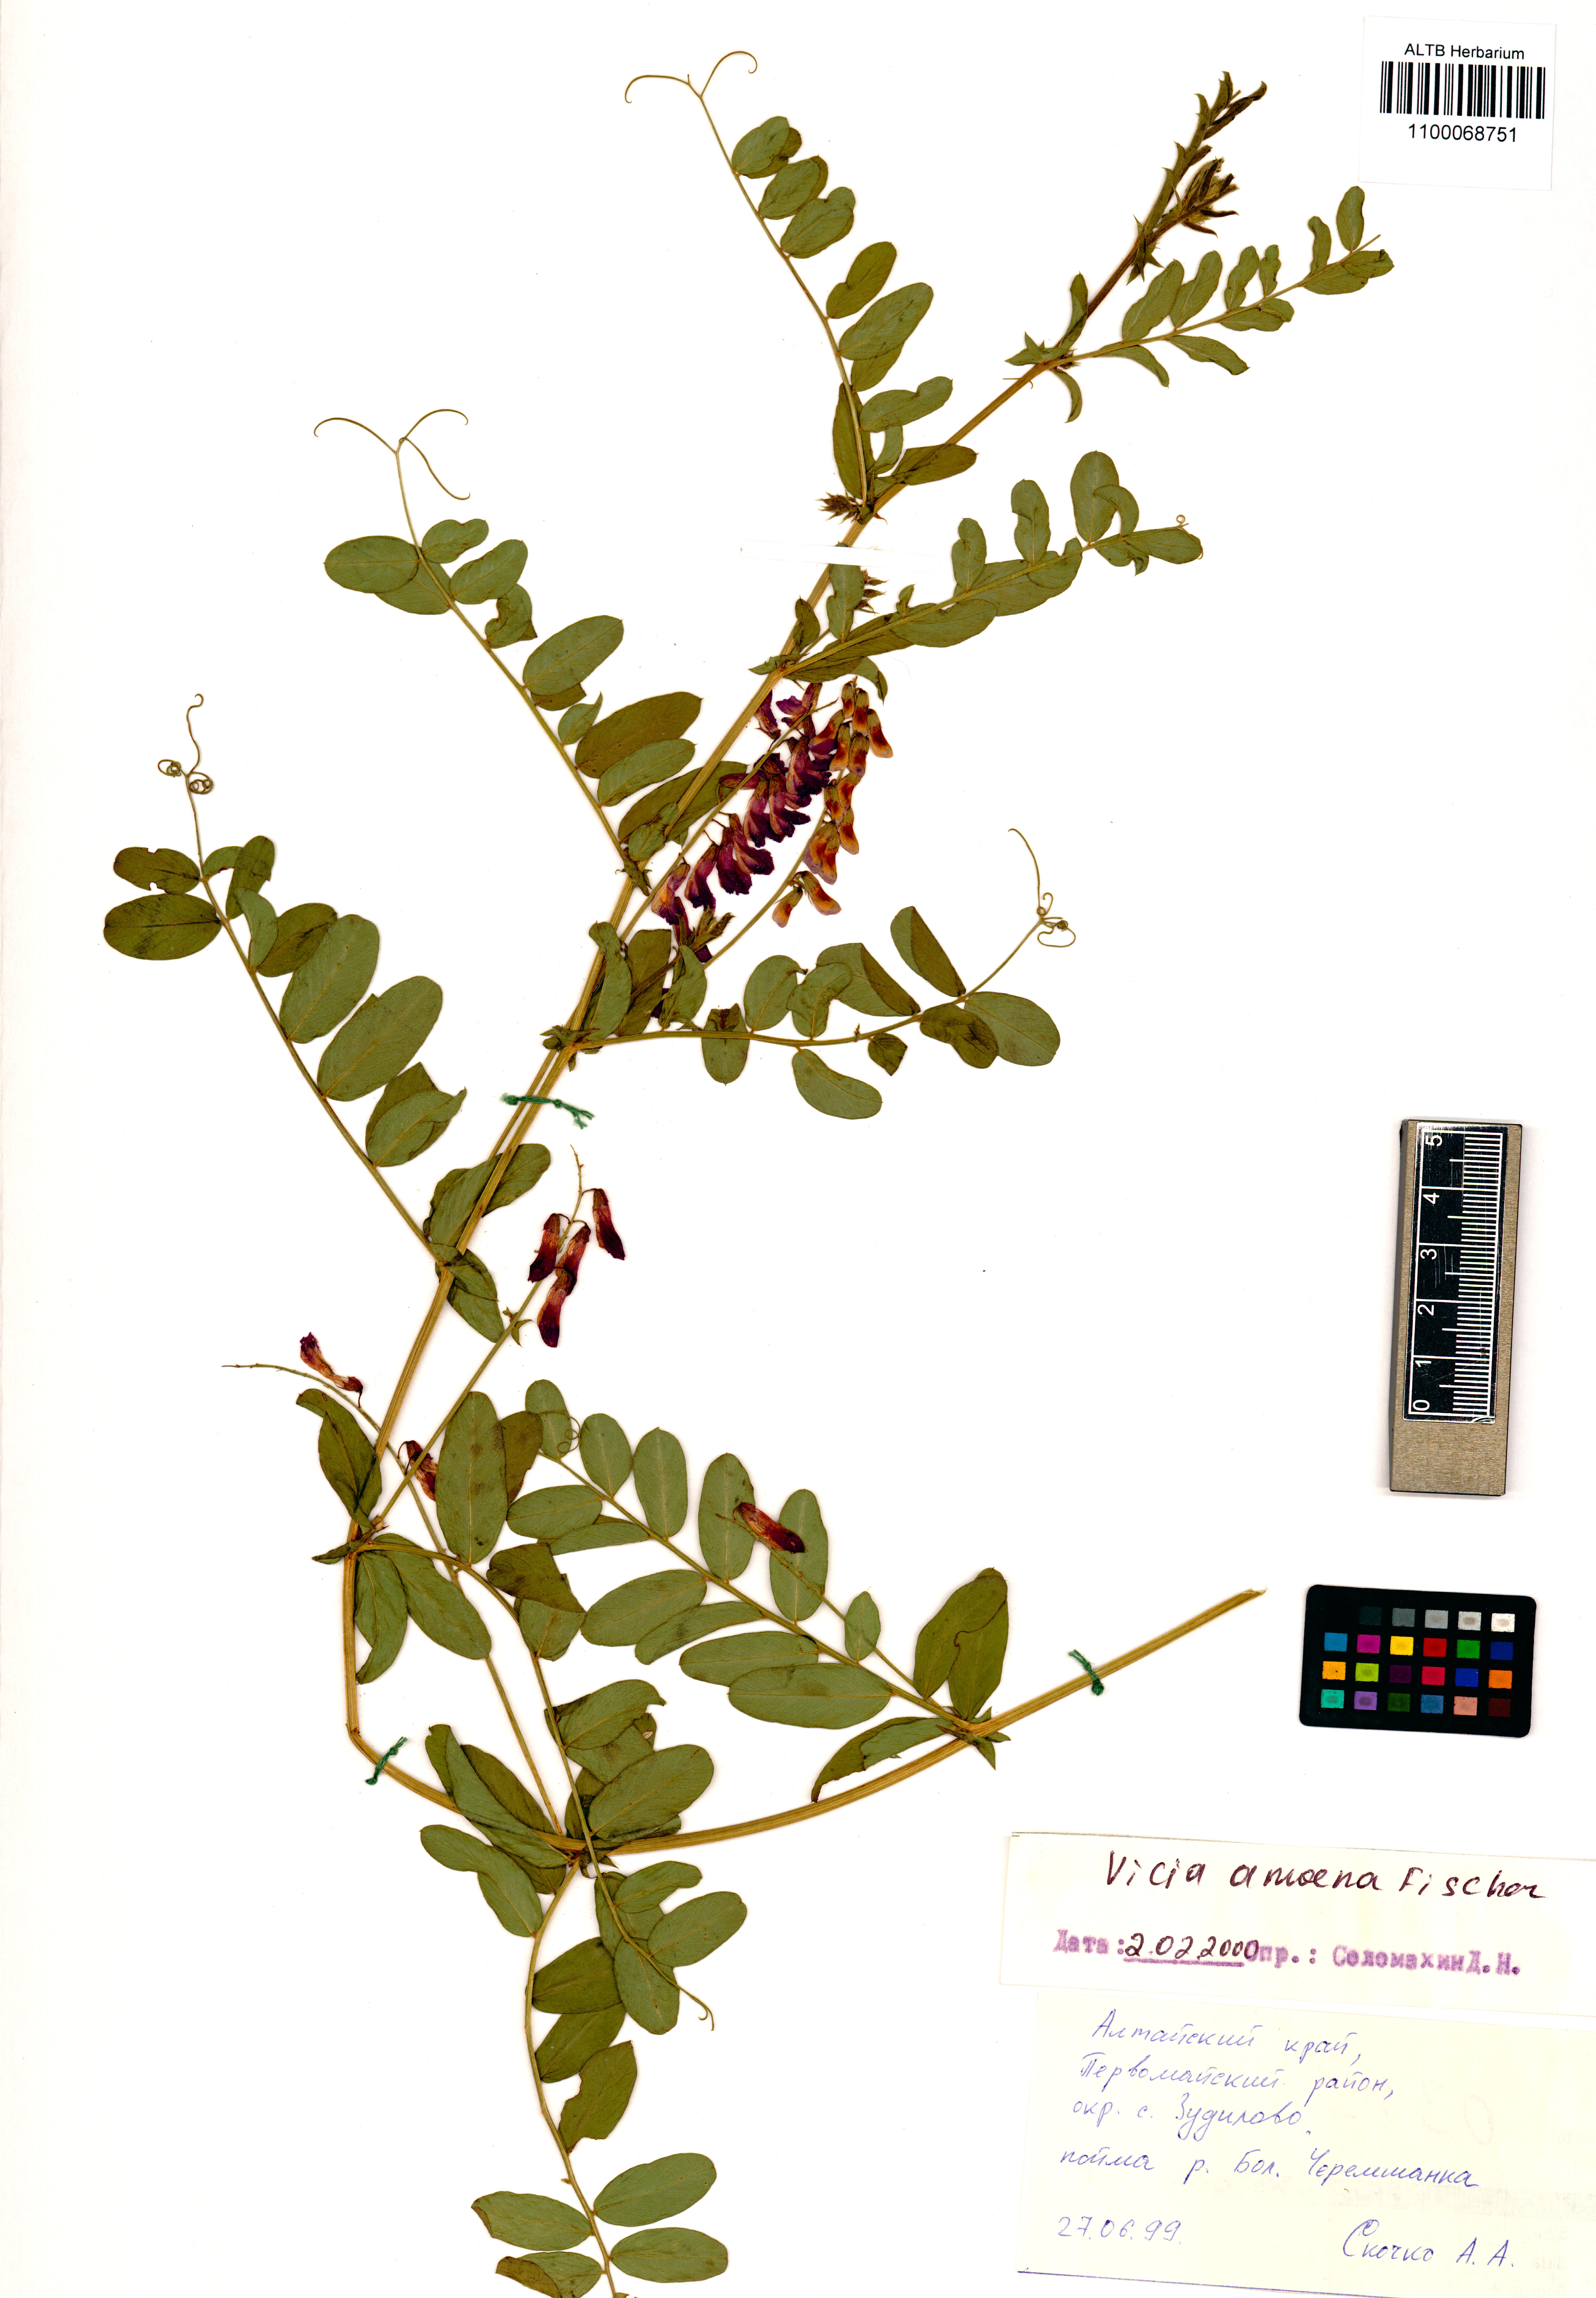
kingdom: Plantae
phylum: Tracheophyta
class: Magnoliopsida
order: Fabales
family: Fabaceae
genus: Vicia
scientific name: Vicia amoena
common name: Cheder ebs
